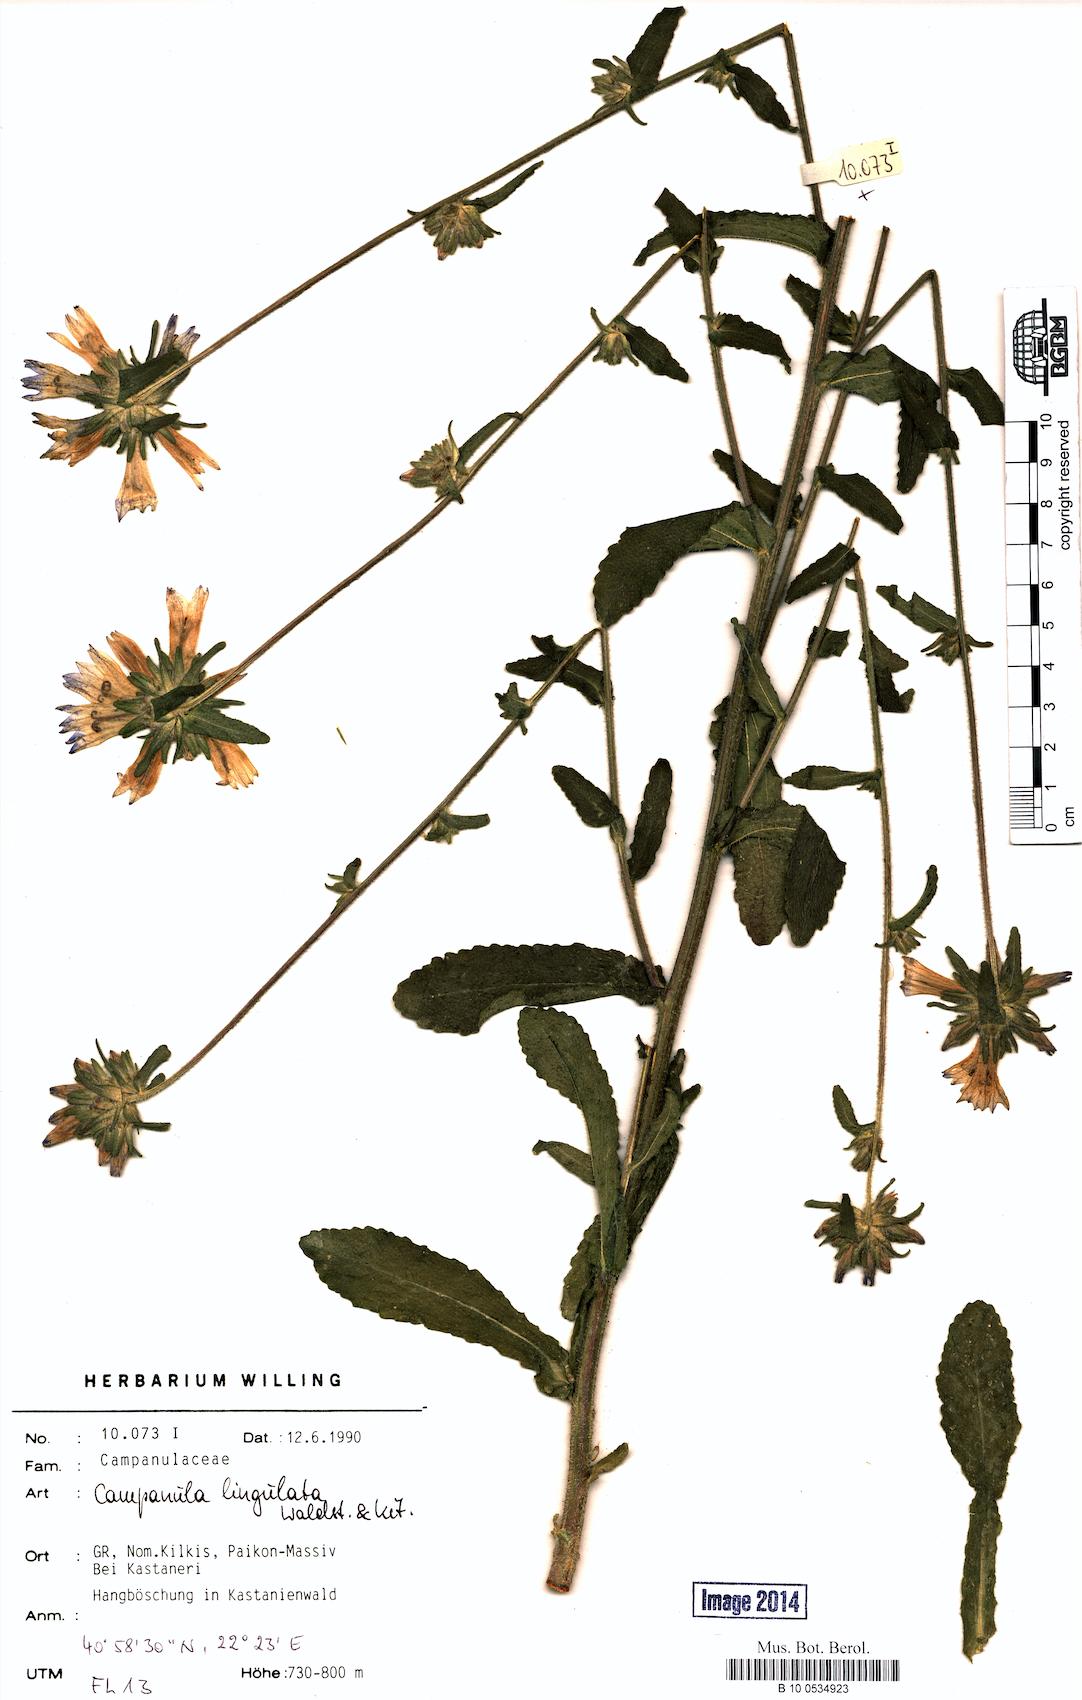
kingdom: Plantae
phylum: Tracheophyta
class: Magnoliopsida
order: Asterales
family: Campanulaceae
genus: Campanula
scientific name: Campanula lingulata
